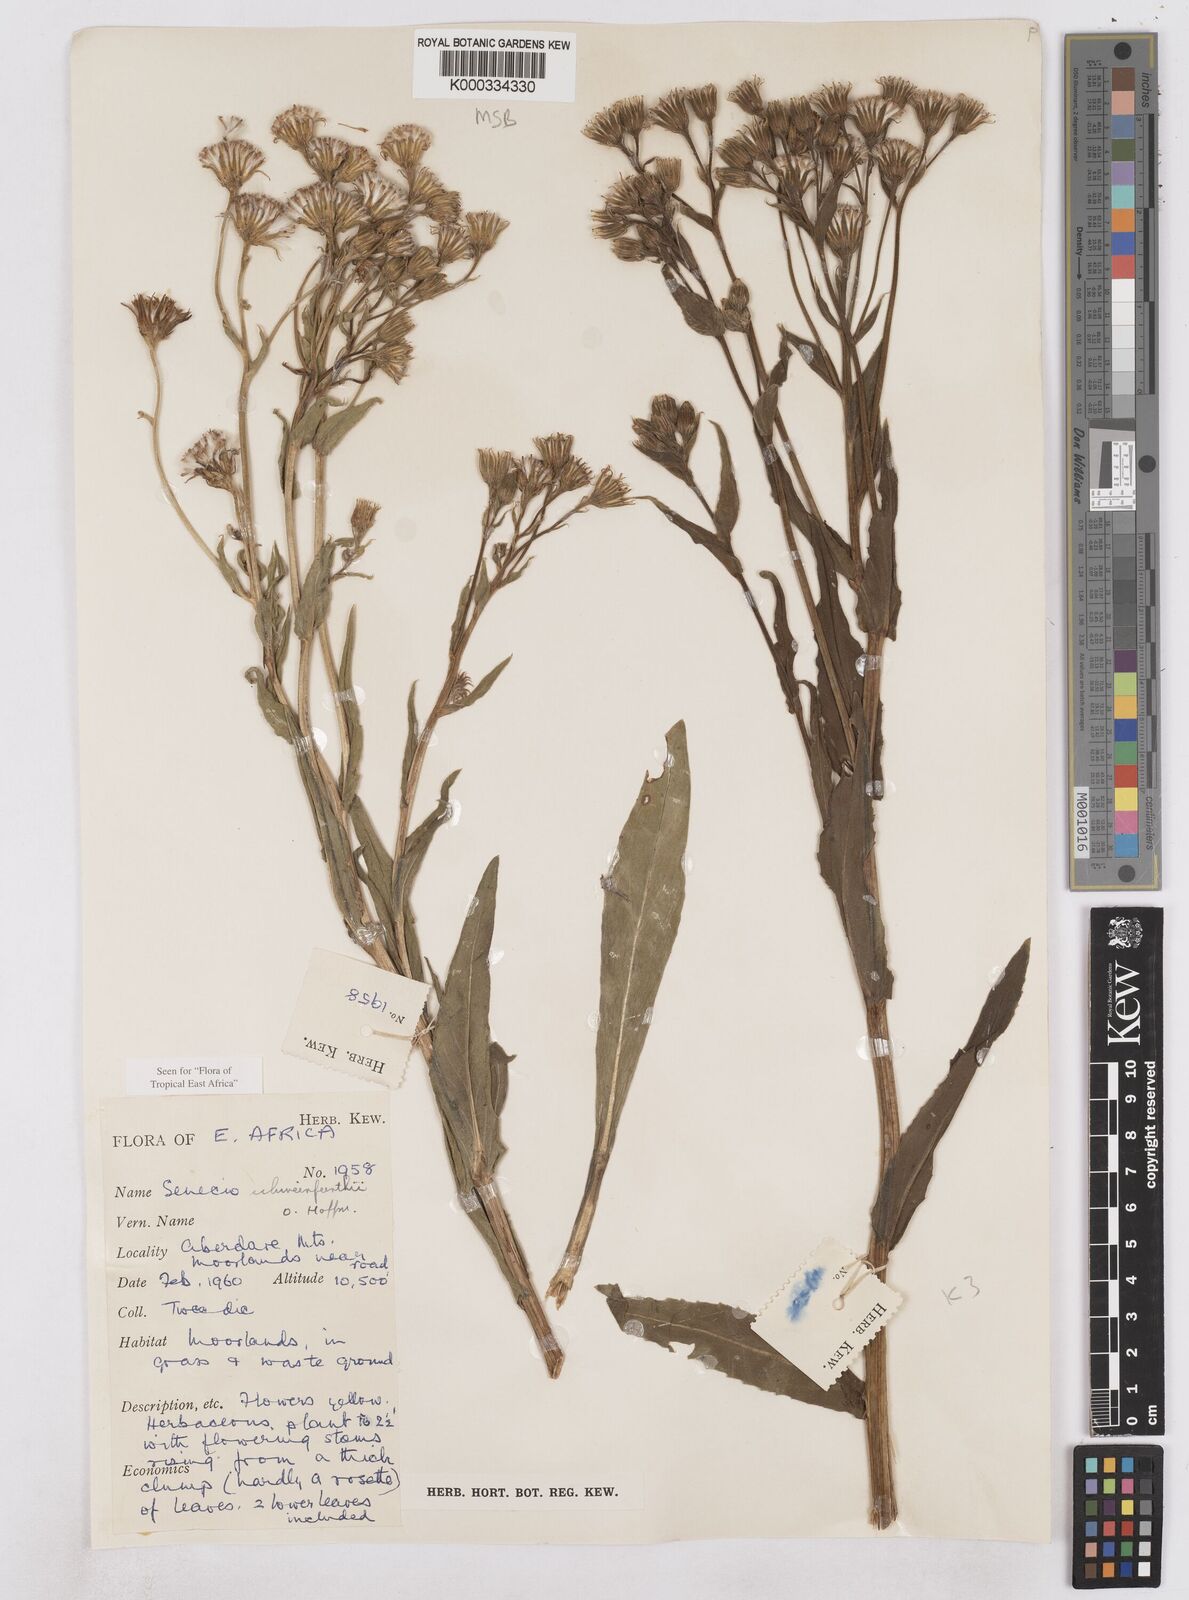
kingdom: Plantae
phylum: Tracheophyta
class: Magnoliopsida
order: Asterales
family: Asteraceae
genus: Senecio
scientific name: Senecio schweinfurthii
